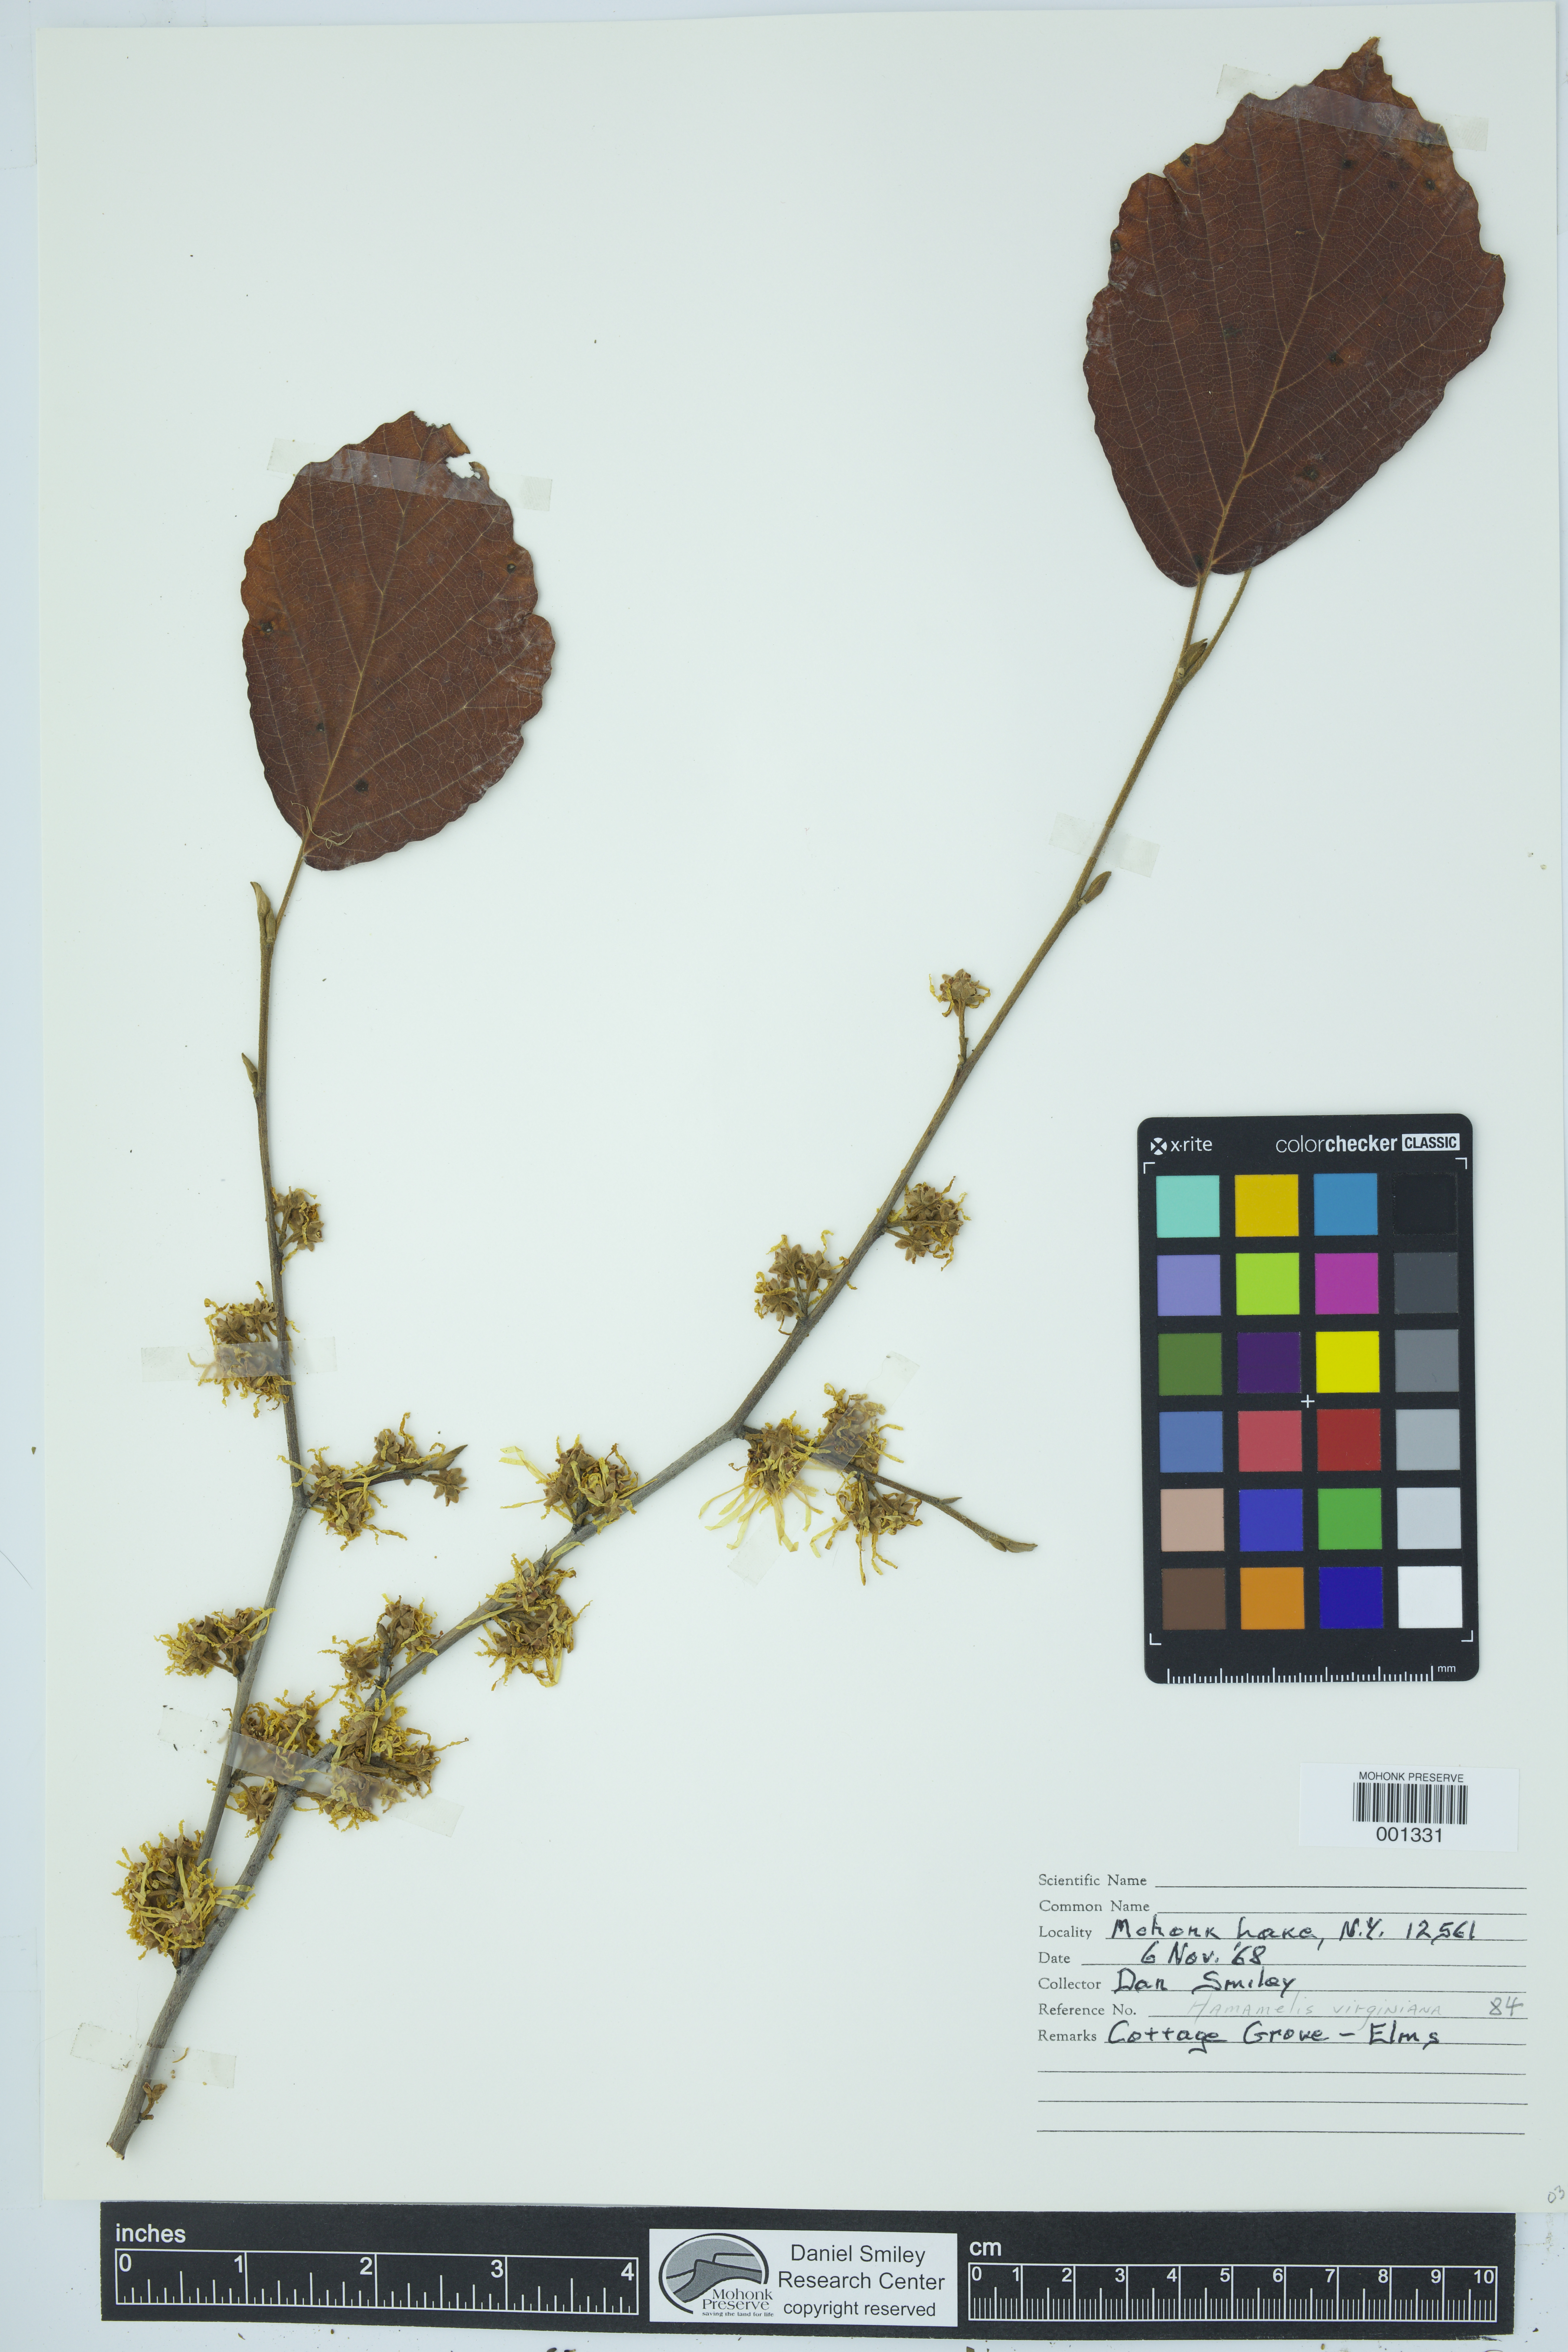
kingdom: Plantae
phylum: Tracheophyta
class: Magnoliopsida
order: Saxifragales
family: Hamamelidaceae
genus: Hamamelis
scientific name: Hamamelis virginiana
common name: Witch-hazel
